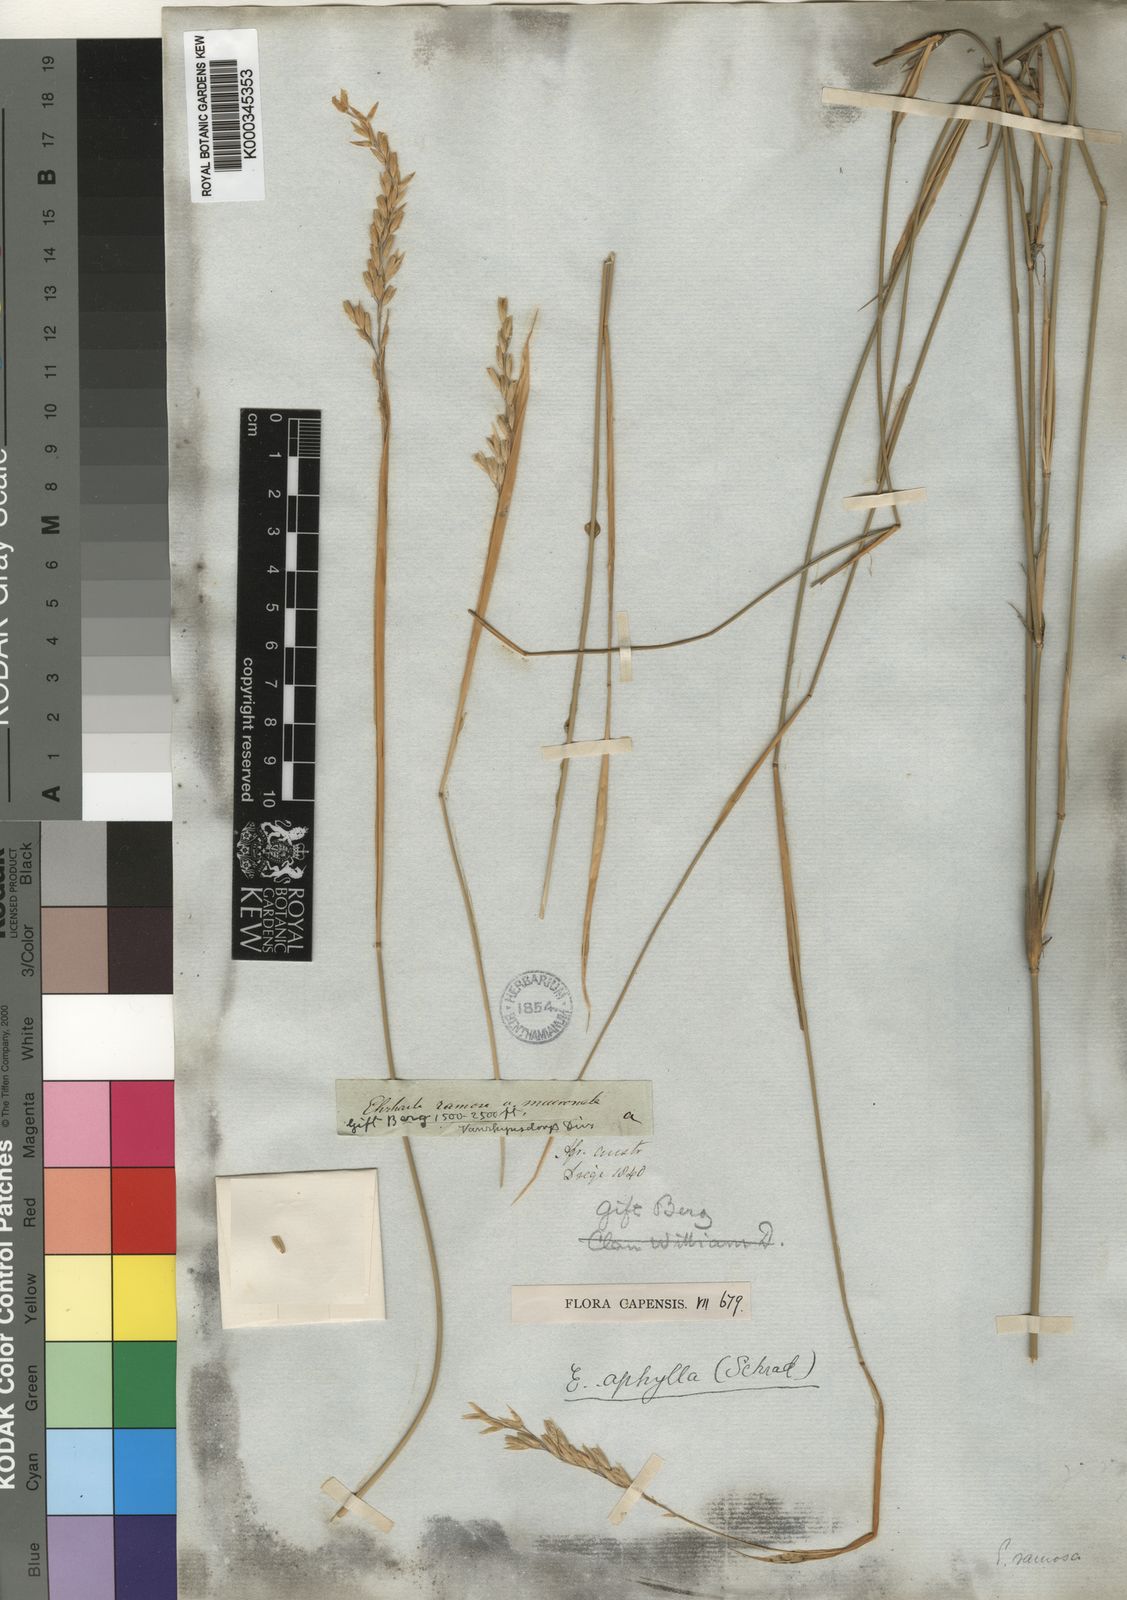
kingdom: Plantae
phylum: Tracheophyta
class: Liliopsida
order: Poales
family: Poaceae
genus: Ehrharta
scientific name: Ehrharta ramosa
